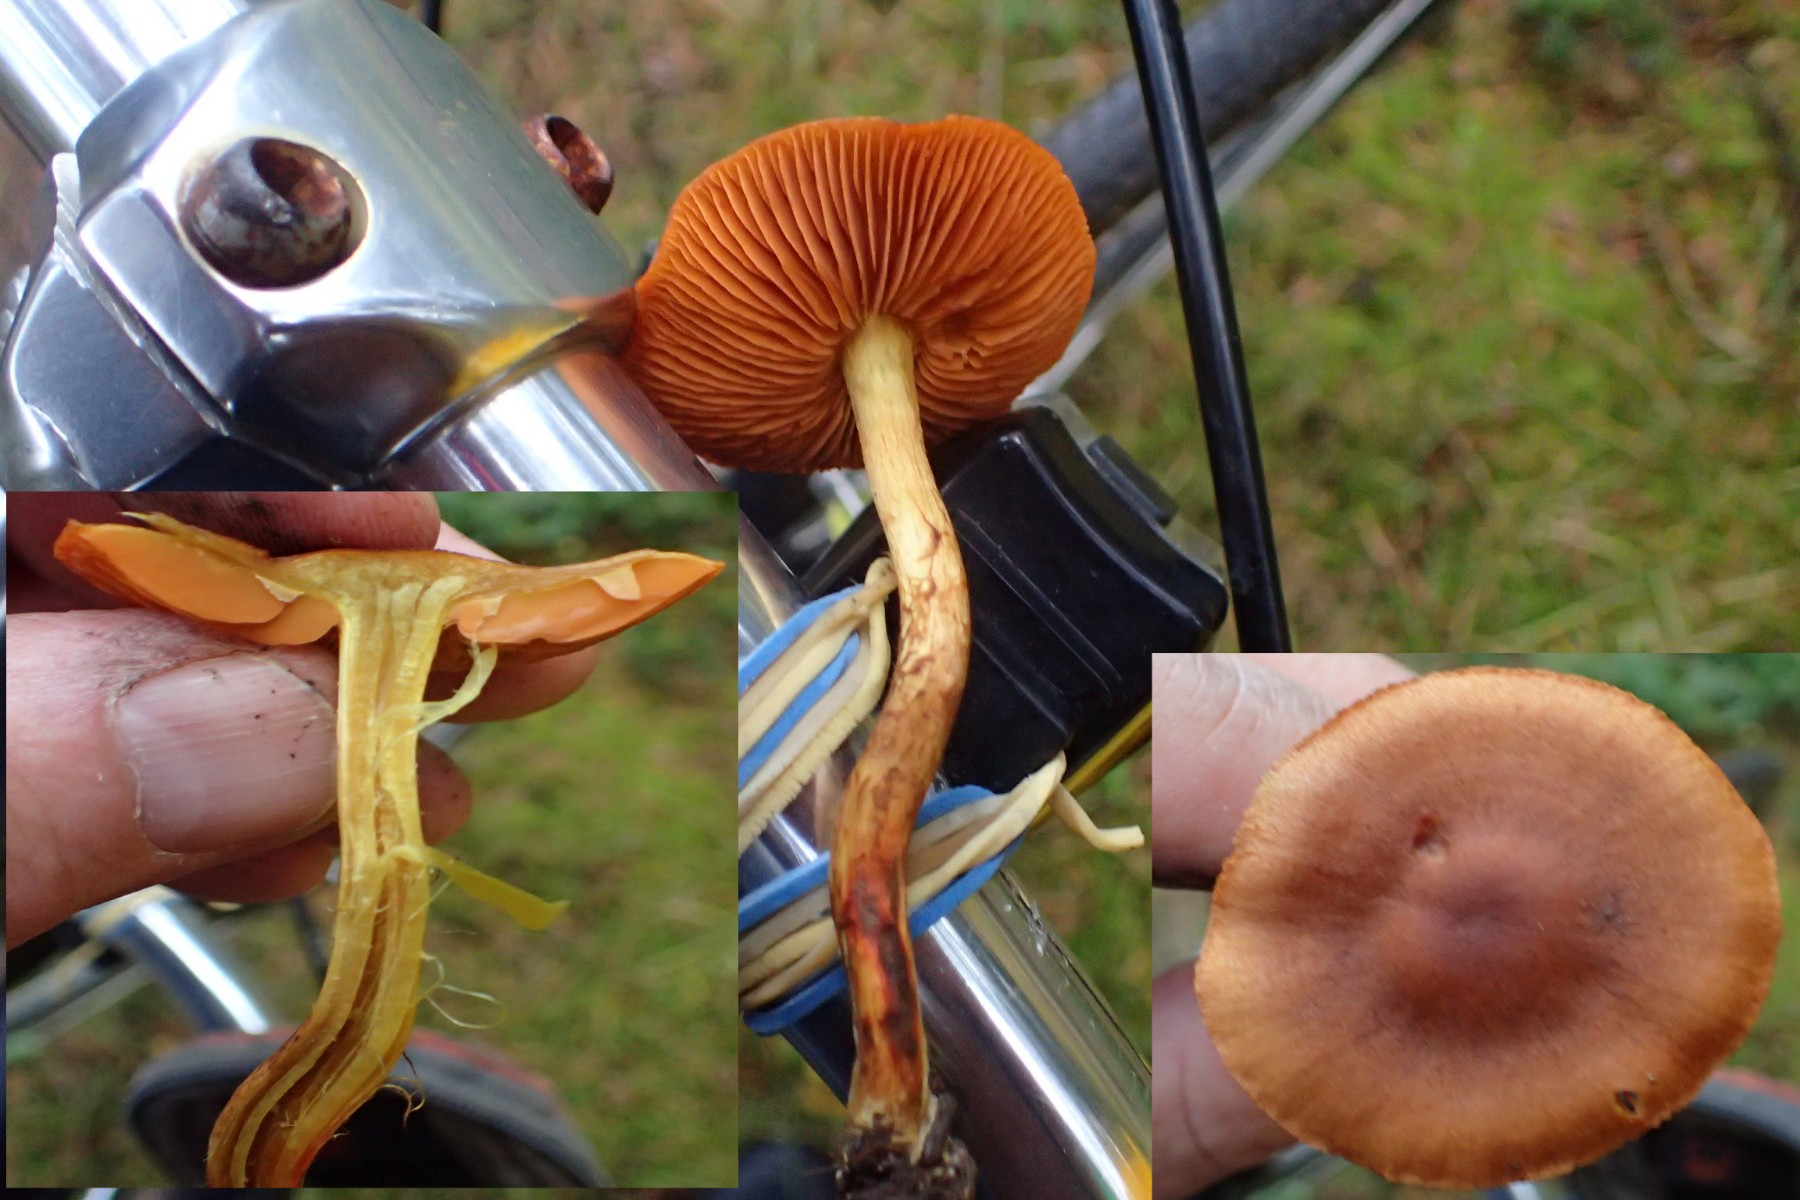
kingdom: Fungi
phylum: Basidiomycota
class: Agaricomycetes
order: Agaricales
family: Cortinariaceae
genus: Cortinarius
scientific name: Cortinarius cinnamomeus
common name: kanel-slørhat
